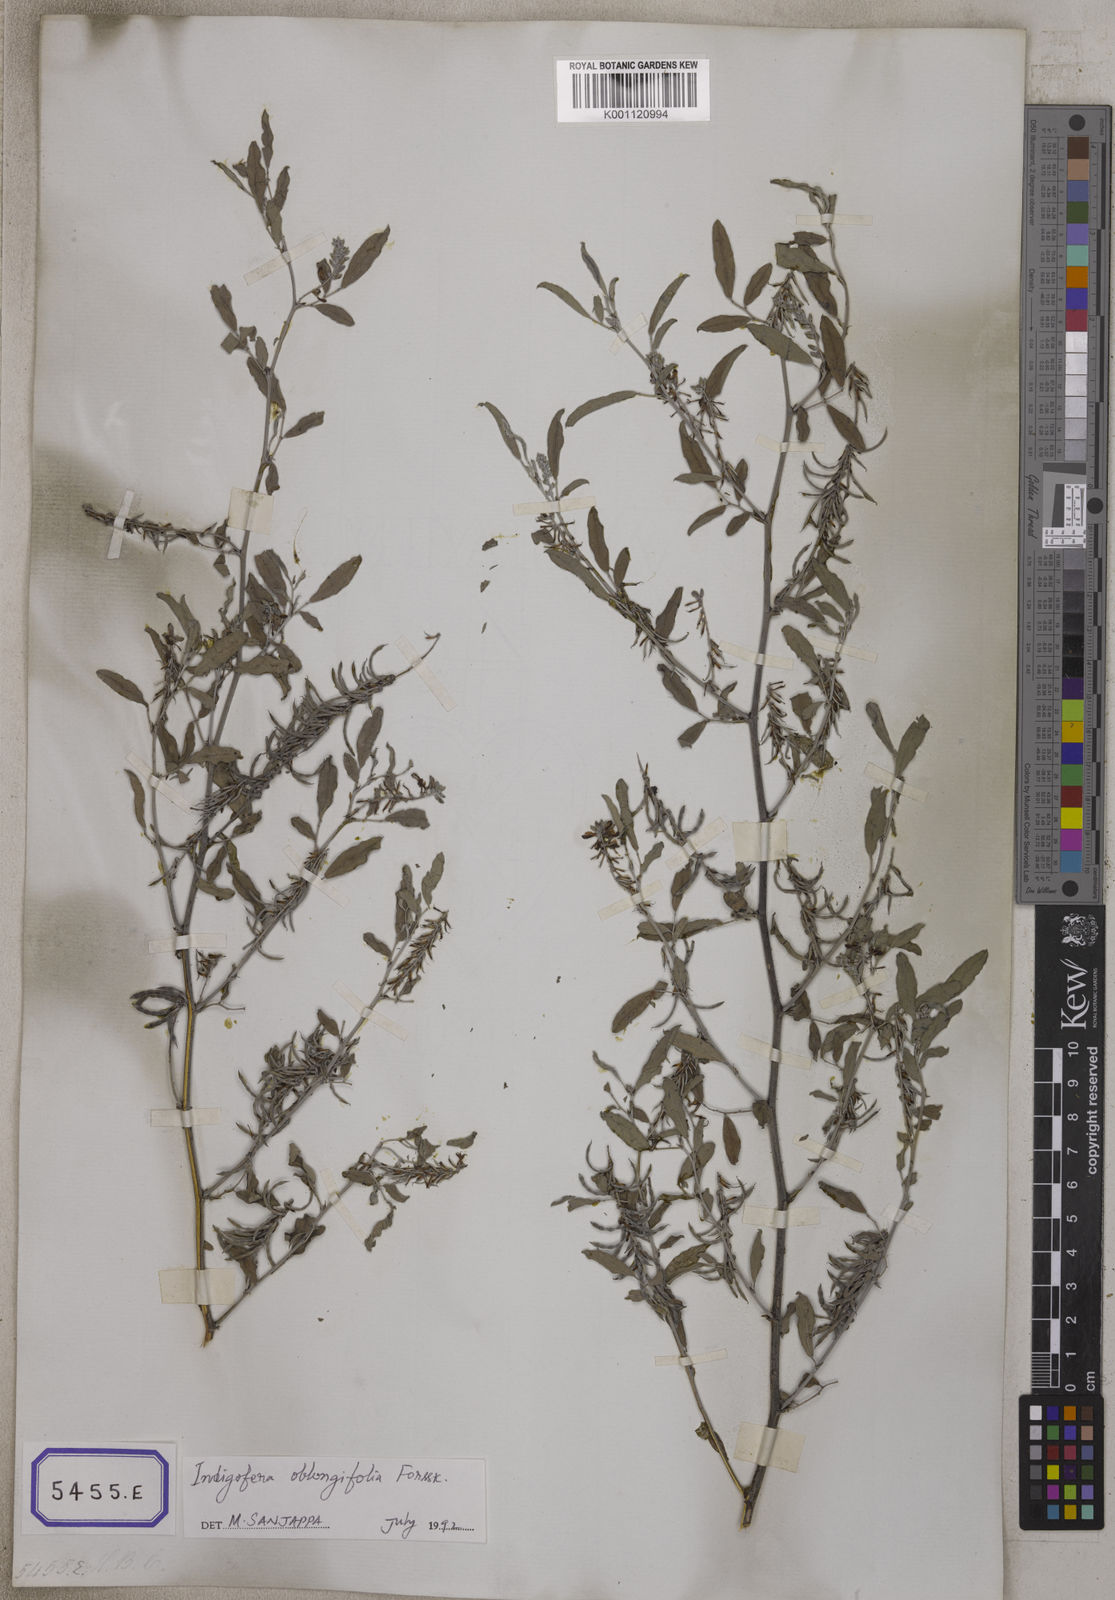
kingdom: Plantae
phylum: Tracheophyta
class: Magnoliopsida
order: Fabales
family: Fabaceae
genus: Indigofera
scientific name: Indigofera
